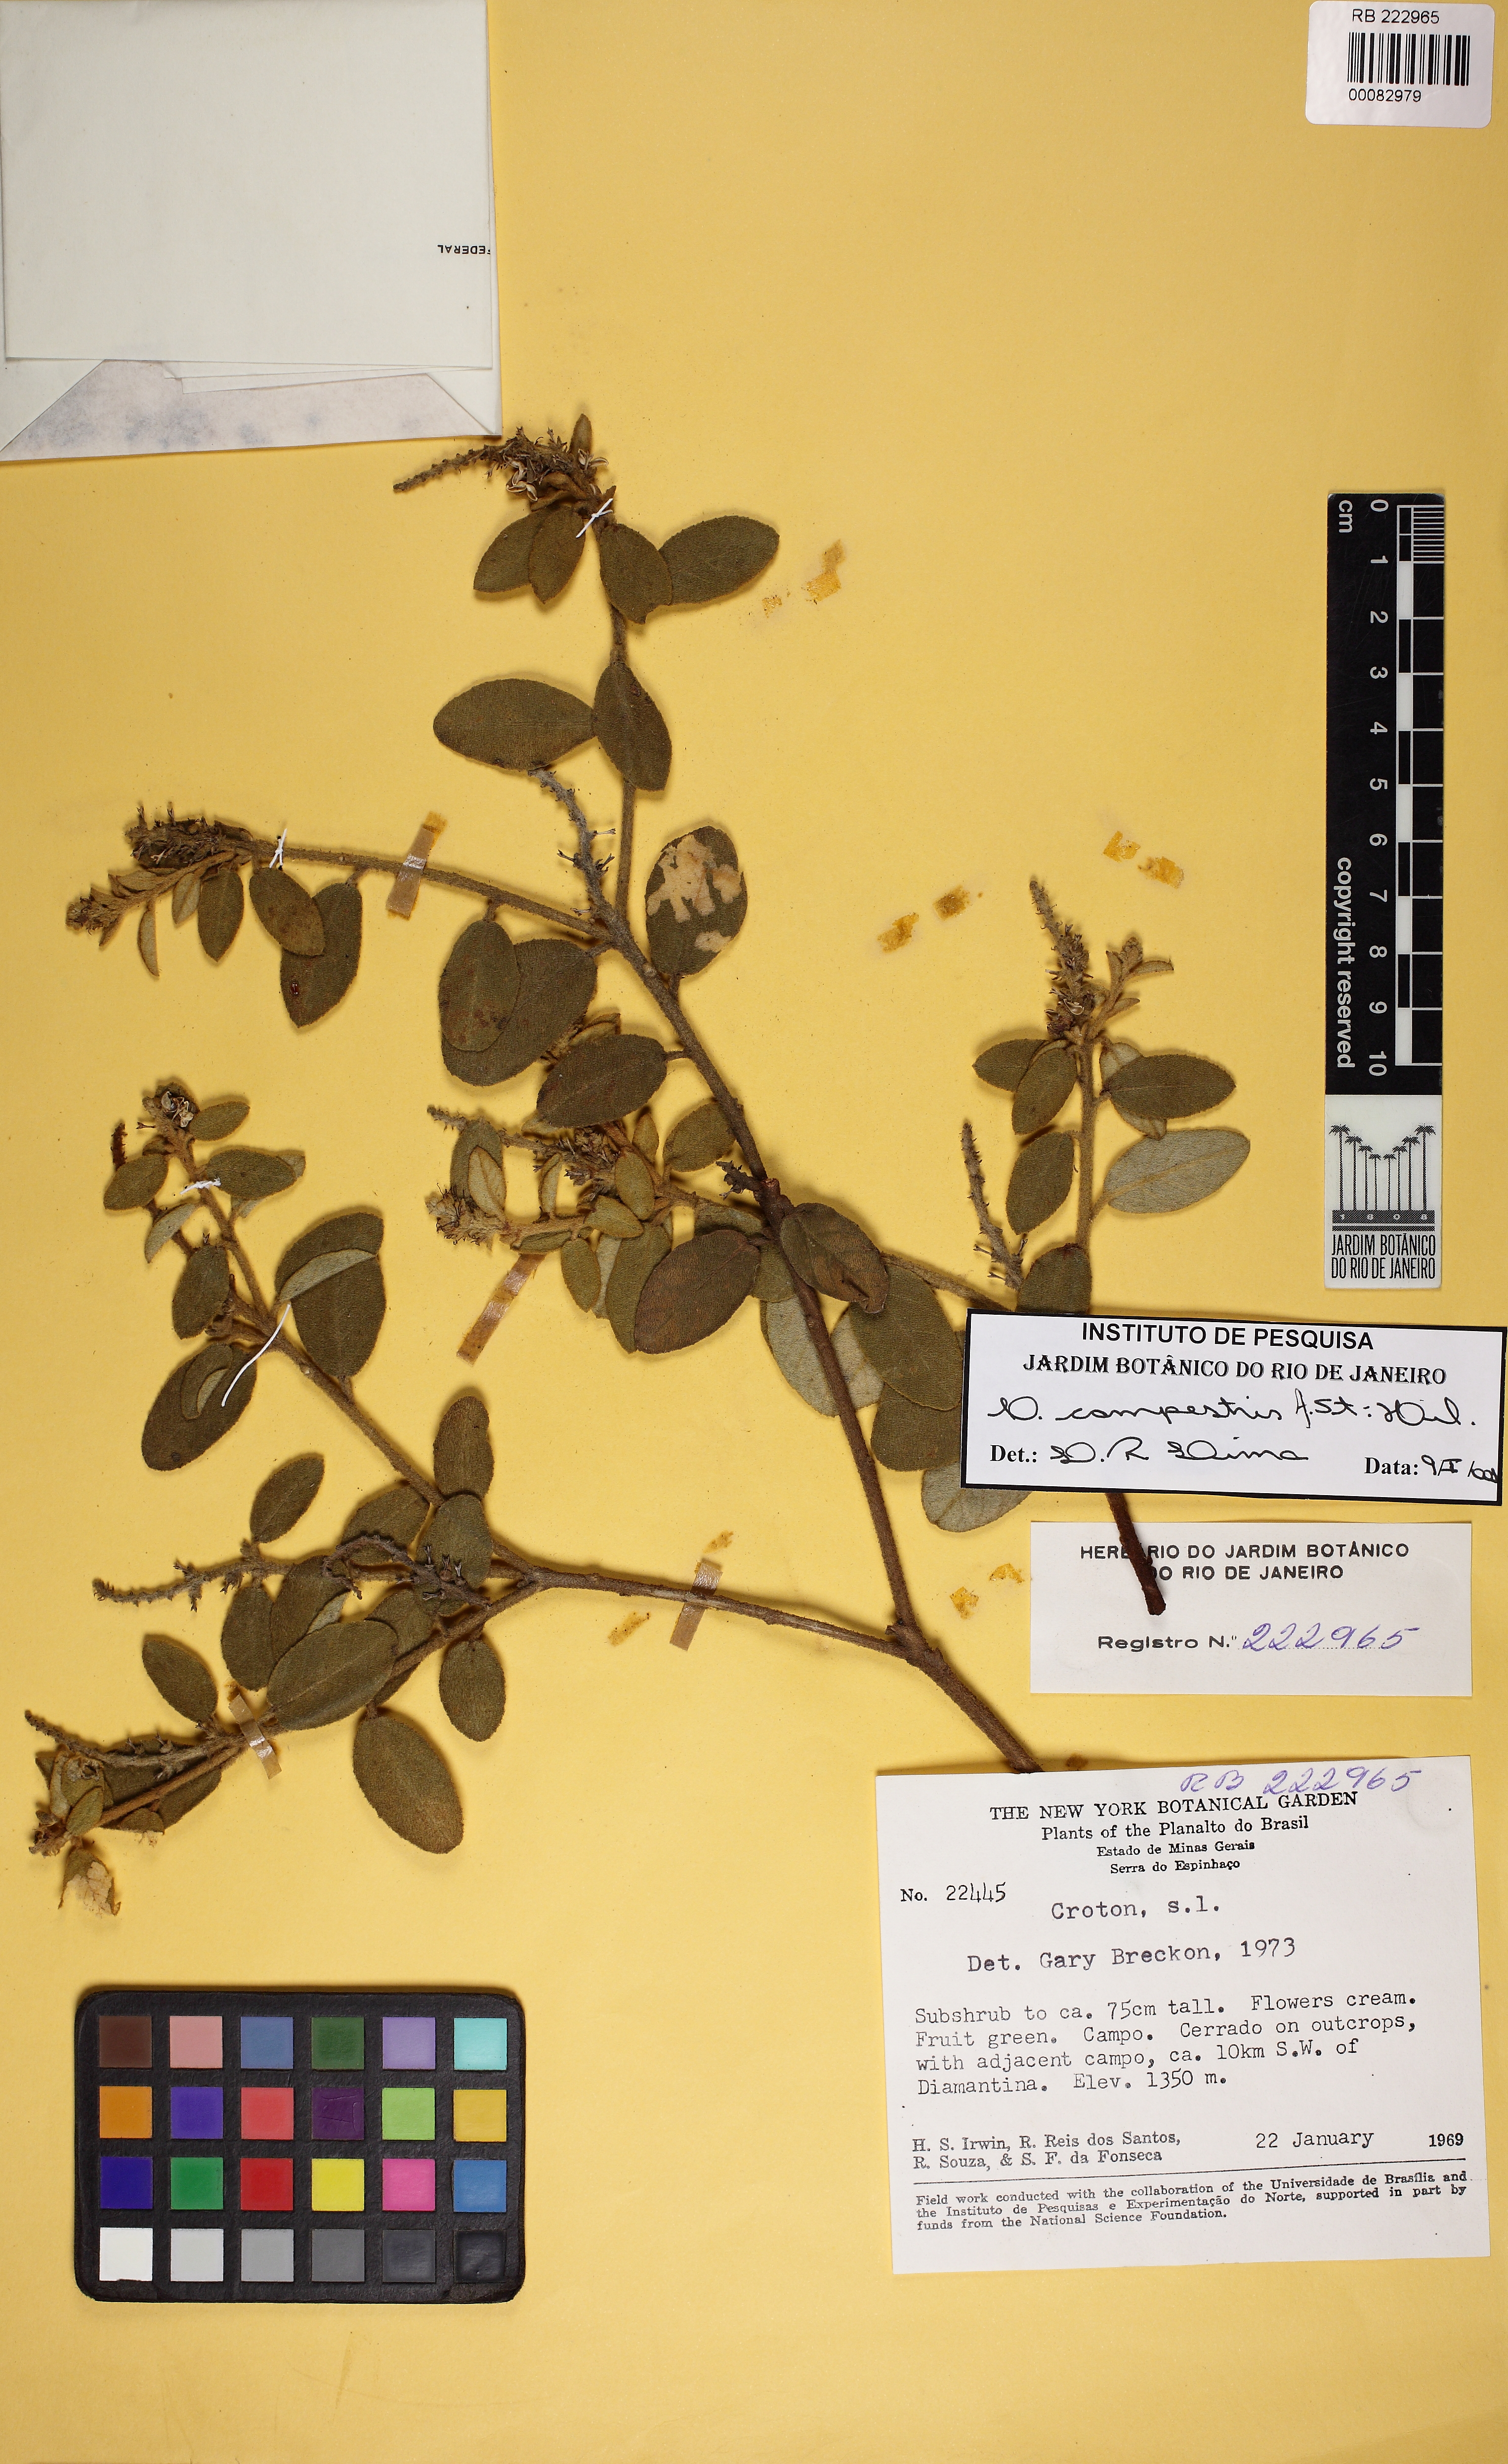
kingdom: Plantae
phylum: Tracheophyta
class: Magnoliopsida
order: Malpighiales
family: Euphorbiaceae
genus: Croton
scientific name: Croton campestris
